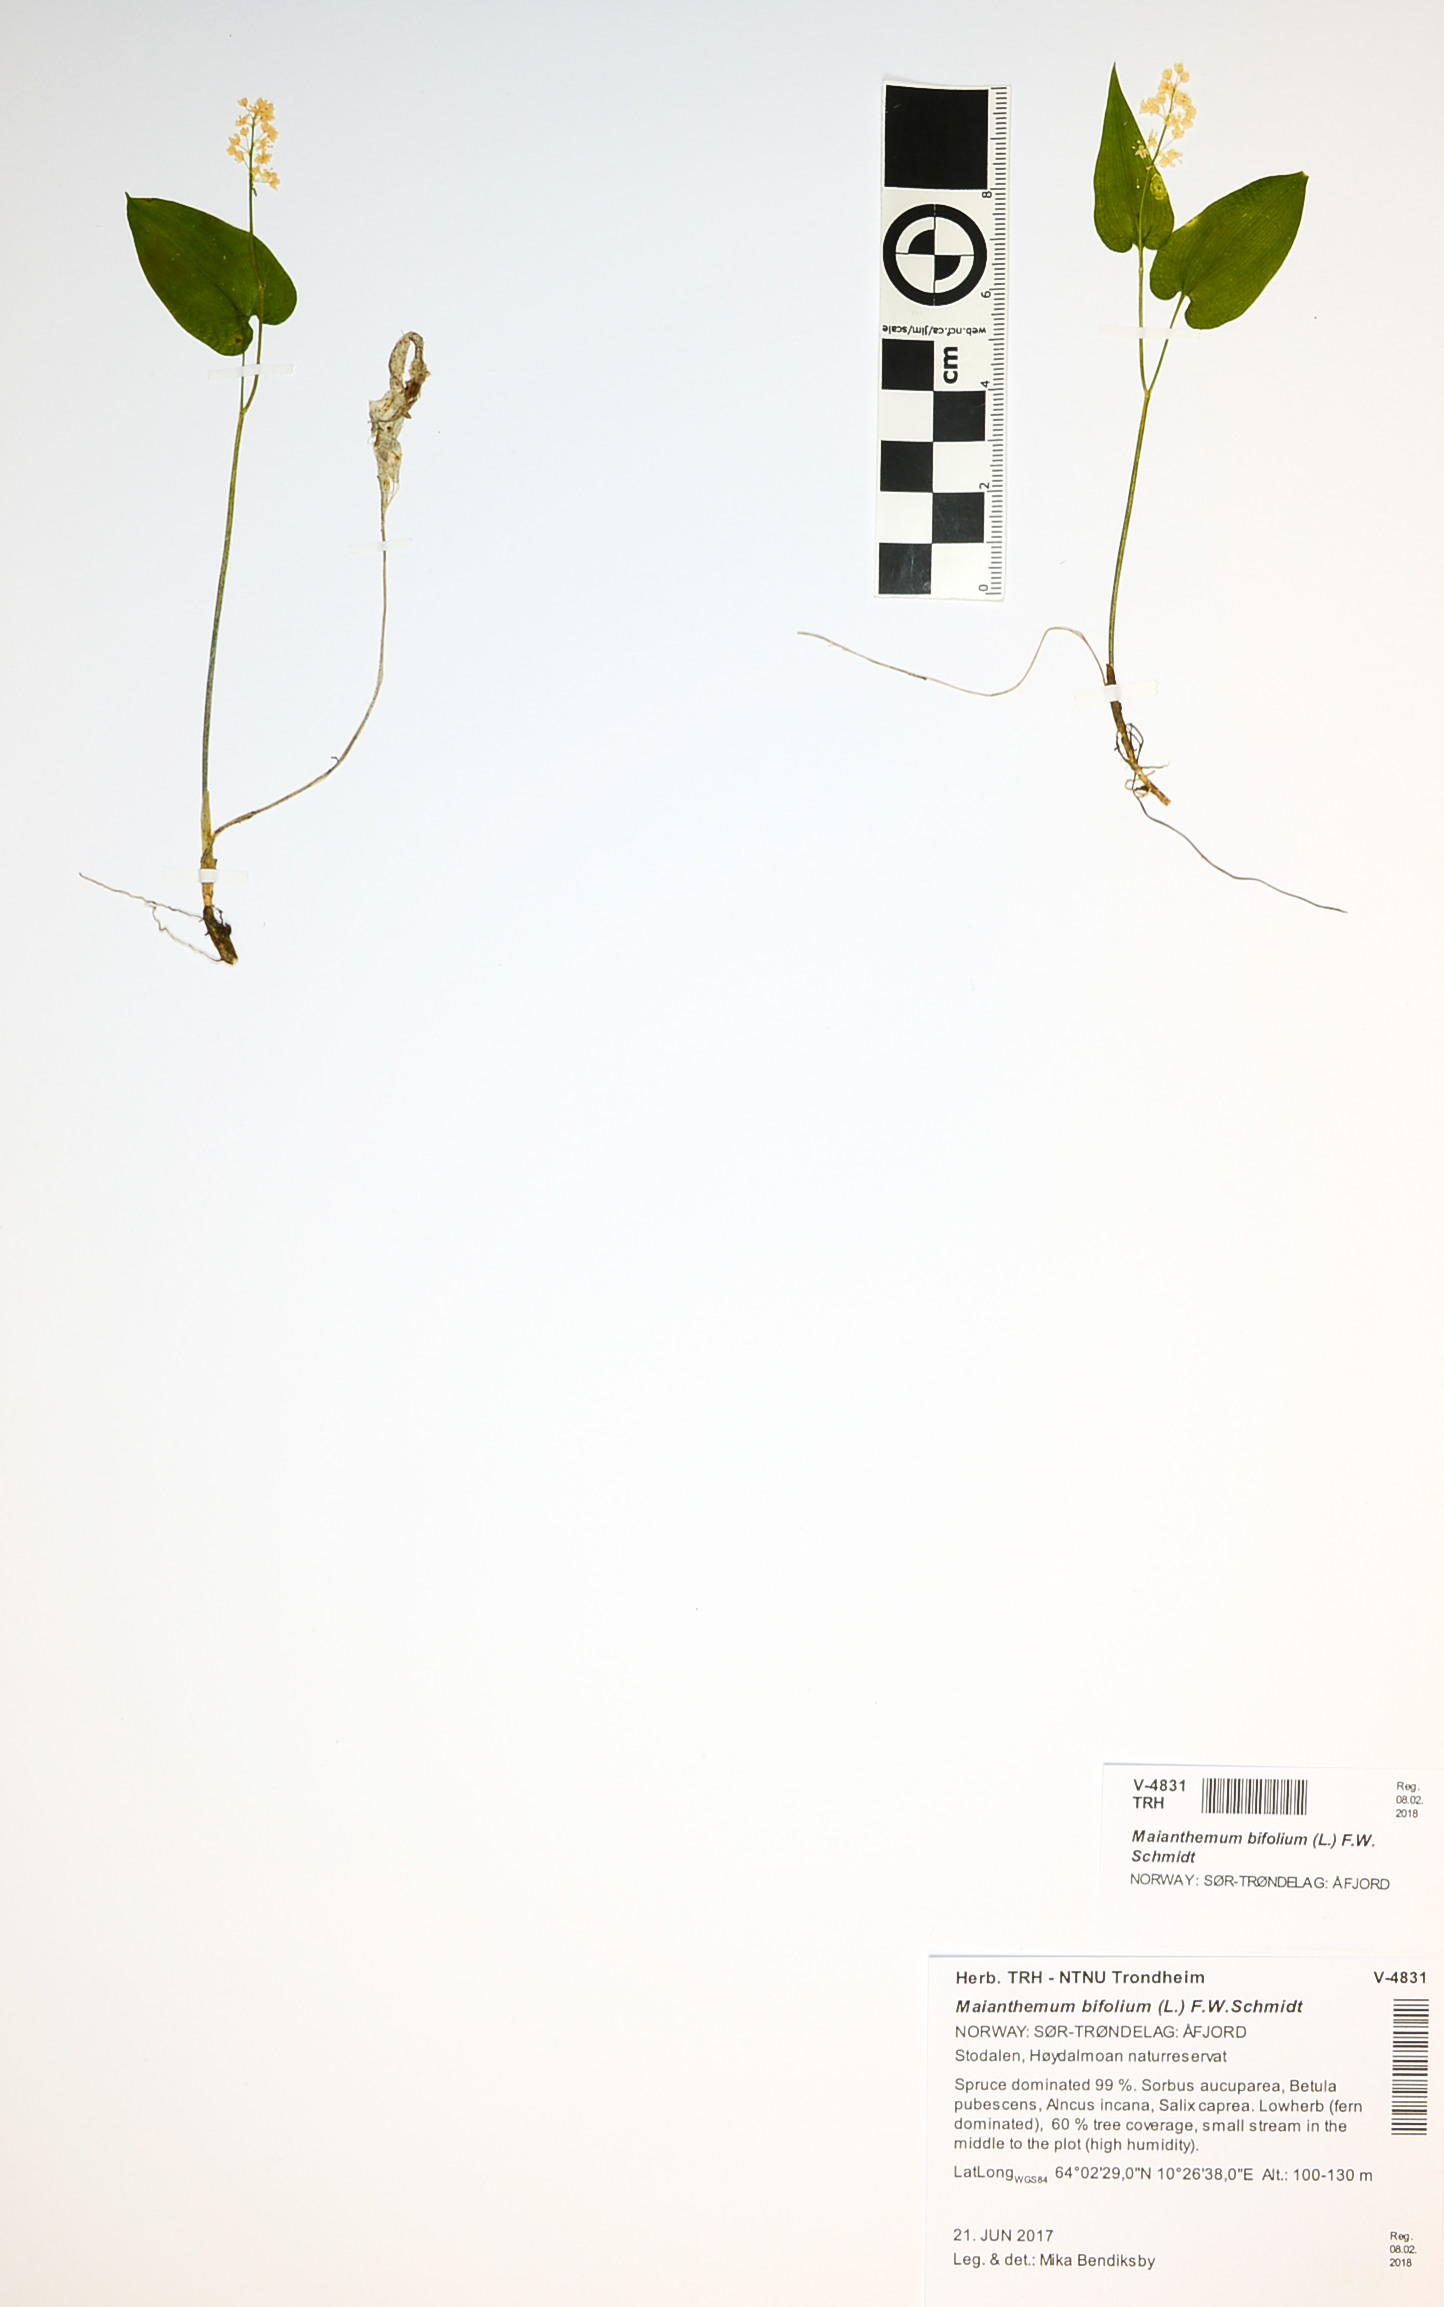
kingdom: Plantae
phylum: Tracheophyta
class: Liliopsida
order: Asparagales
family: Asparagaceae
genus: Maianthemum
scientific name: Maianthemum bifolium
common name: May lily
